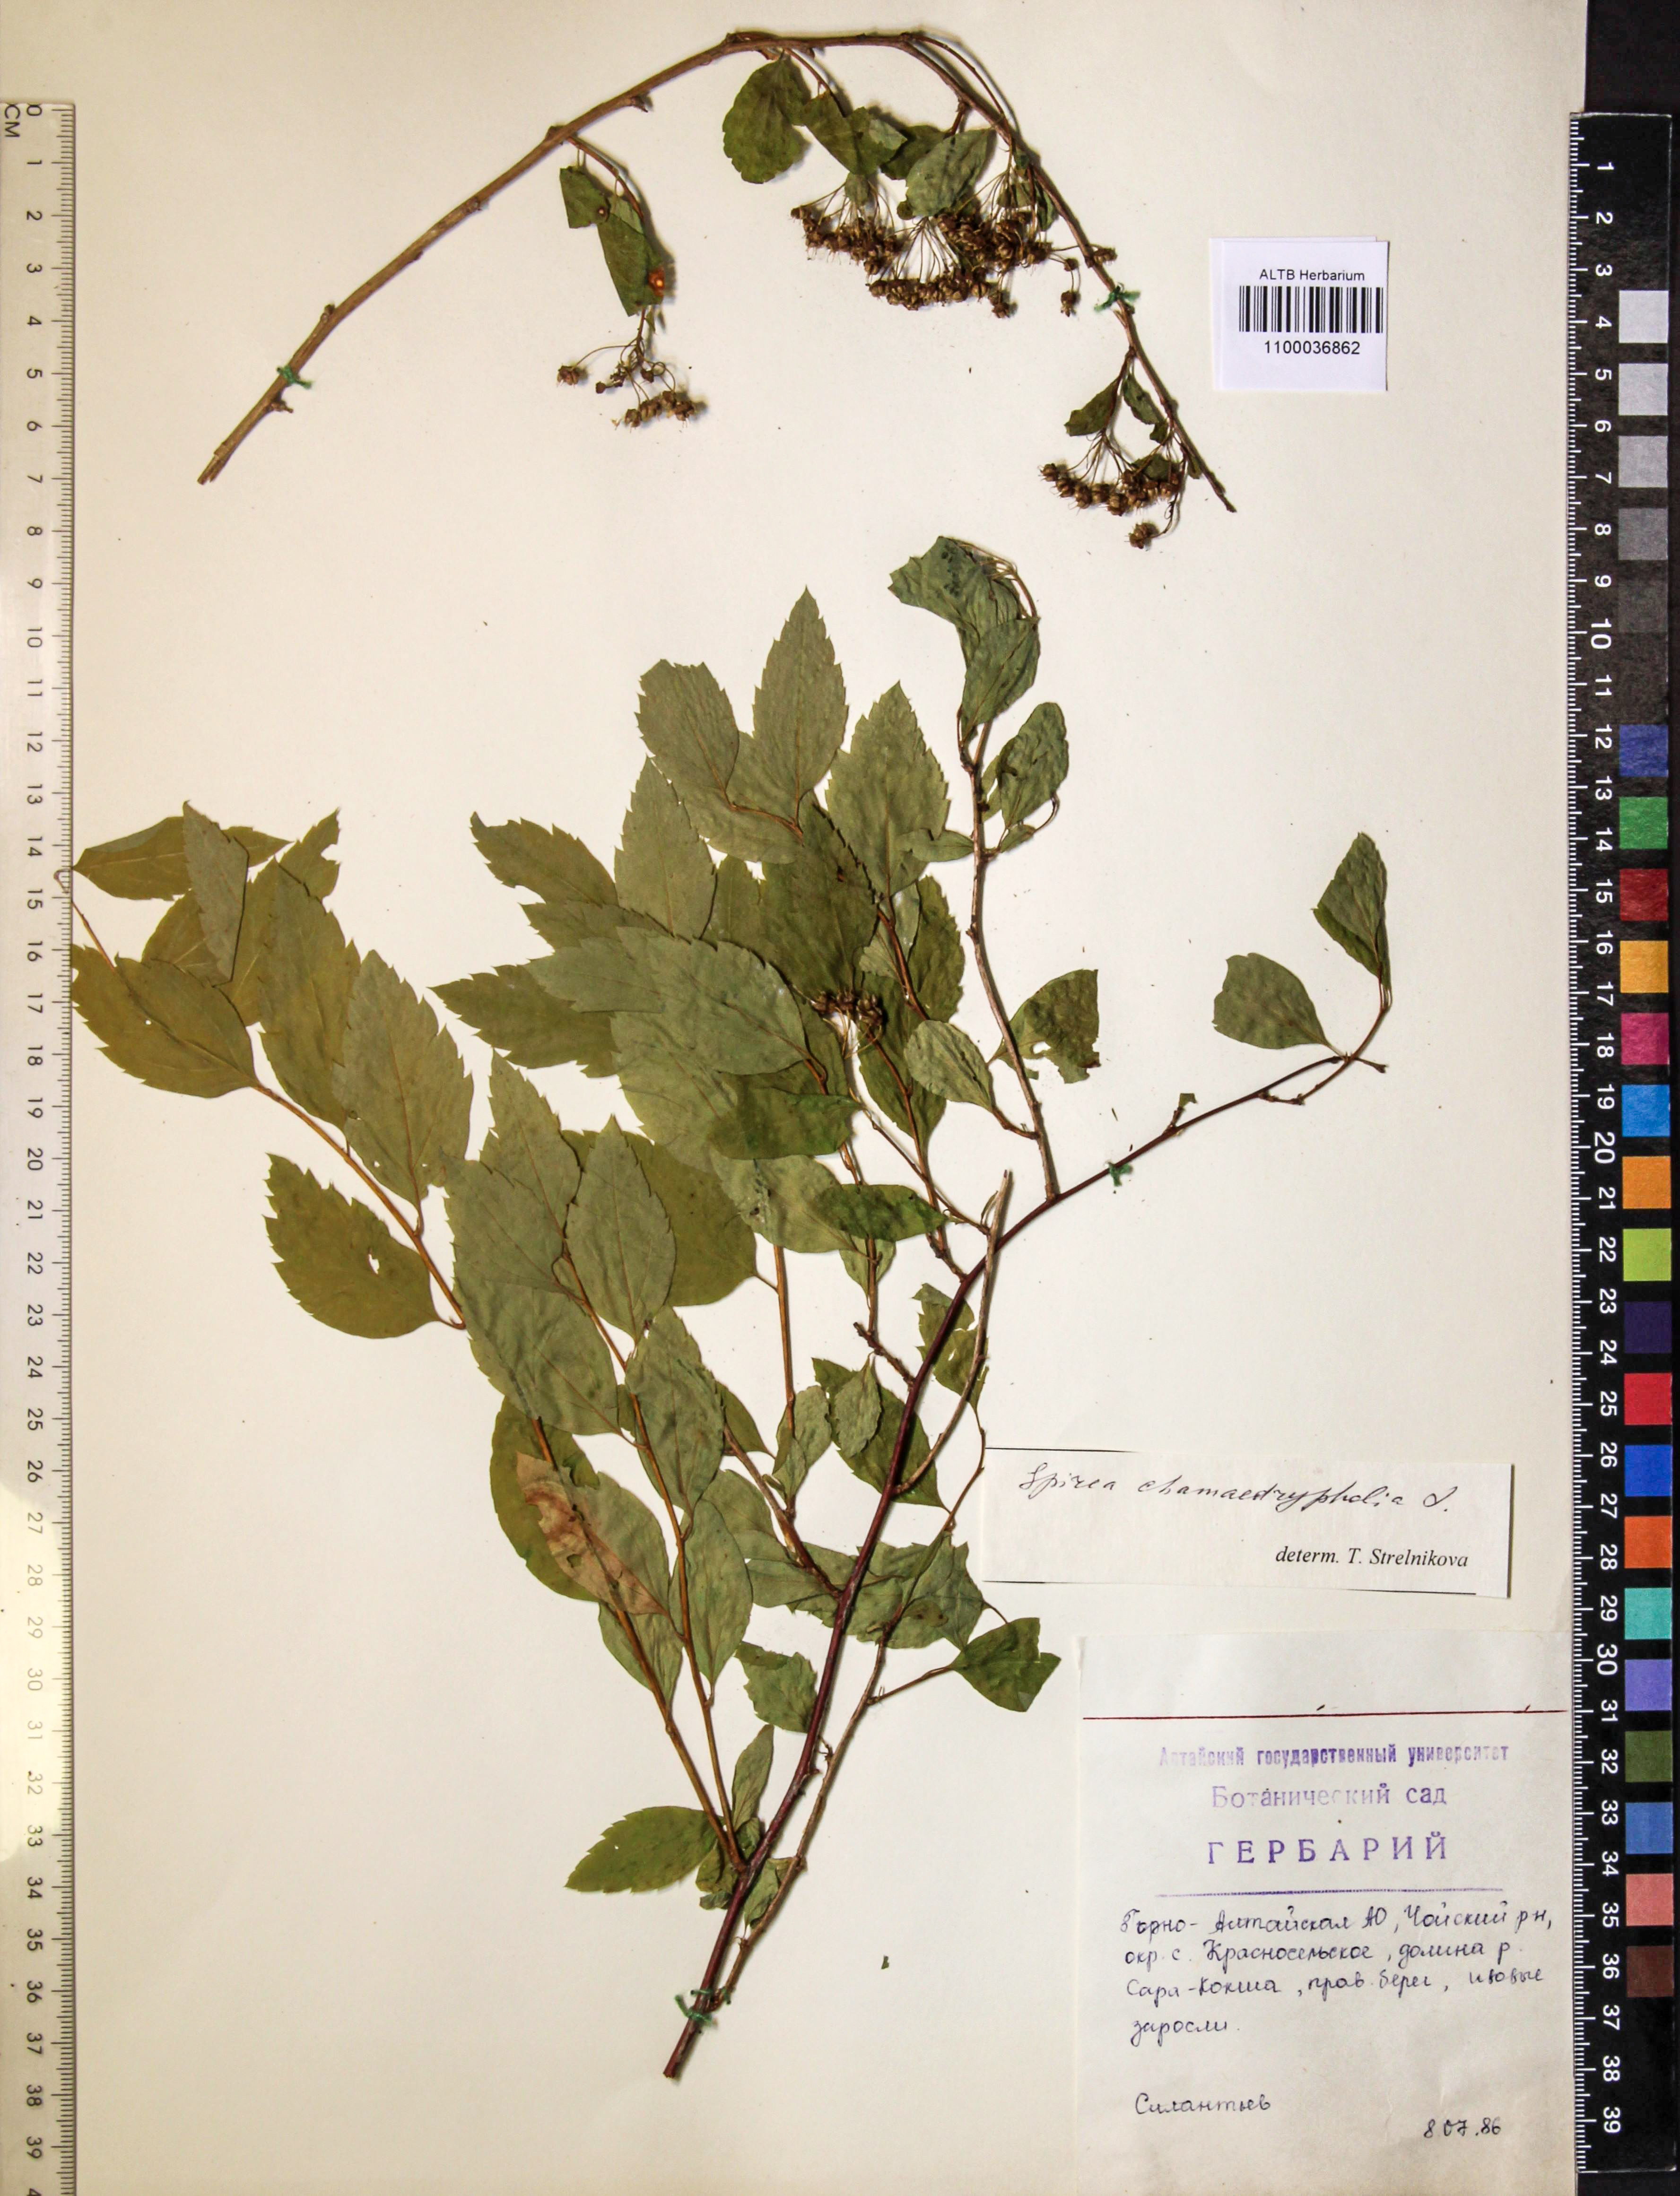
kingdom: Plantae
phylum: Tracheophyta
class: Magnoliopsida
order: Rosales
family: Rosaceae
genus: Spiraea
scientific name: Spiraea chamaedryfolia
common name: Elm-leaved spiraea
